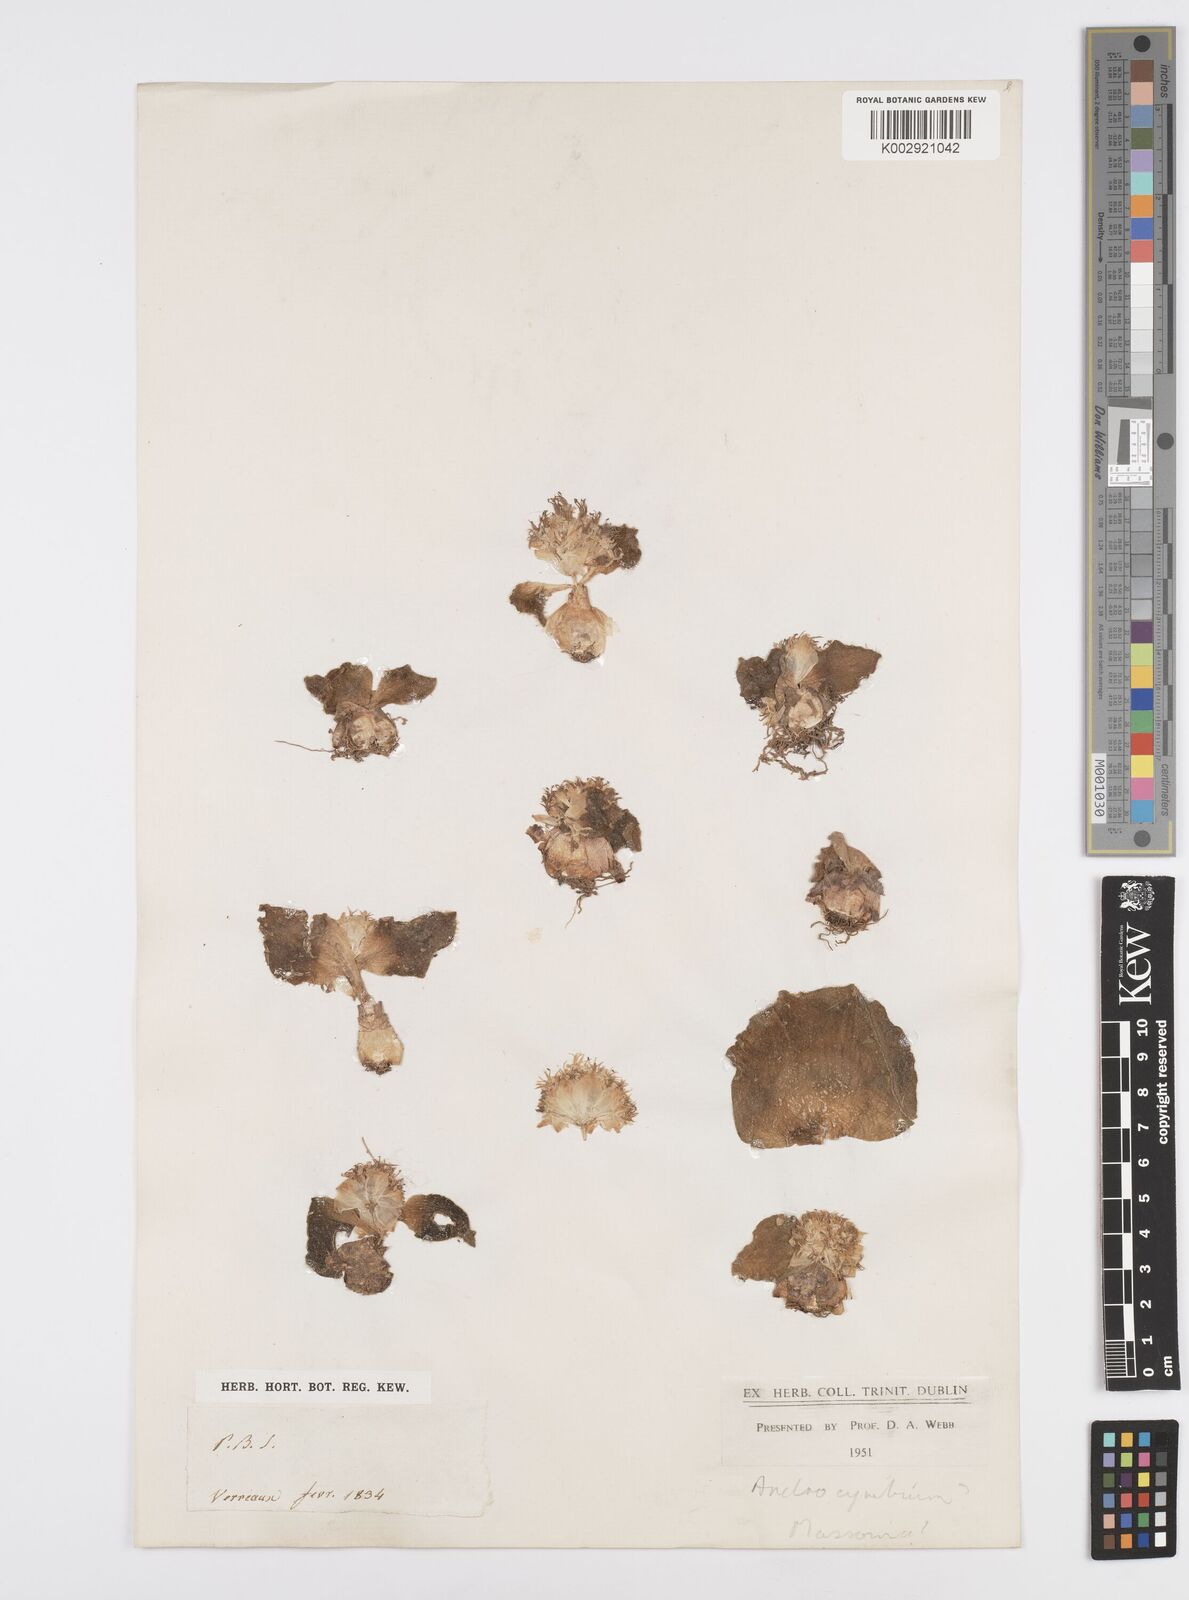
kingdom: Plantae
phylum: Tracheophyta
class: Liliopsida
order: Asparagales
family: Asparagaceae
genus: Massonia
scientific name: Massonia
